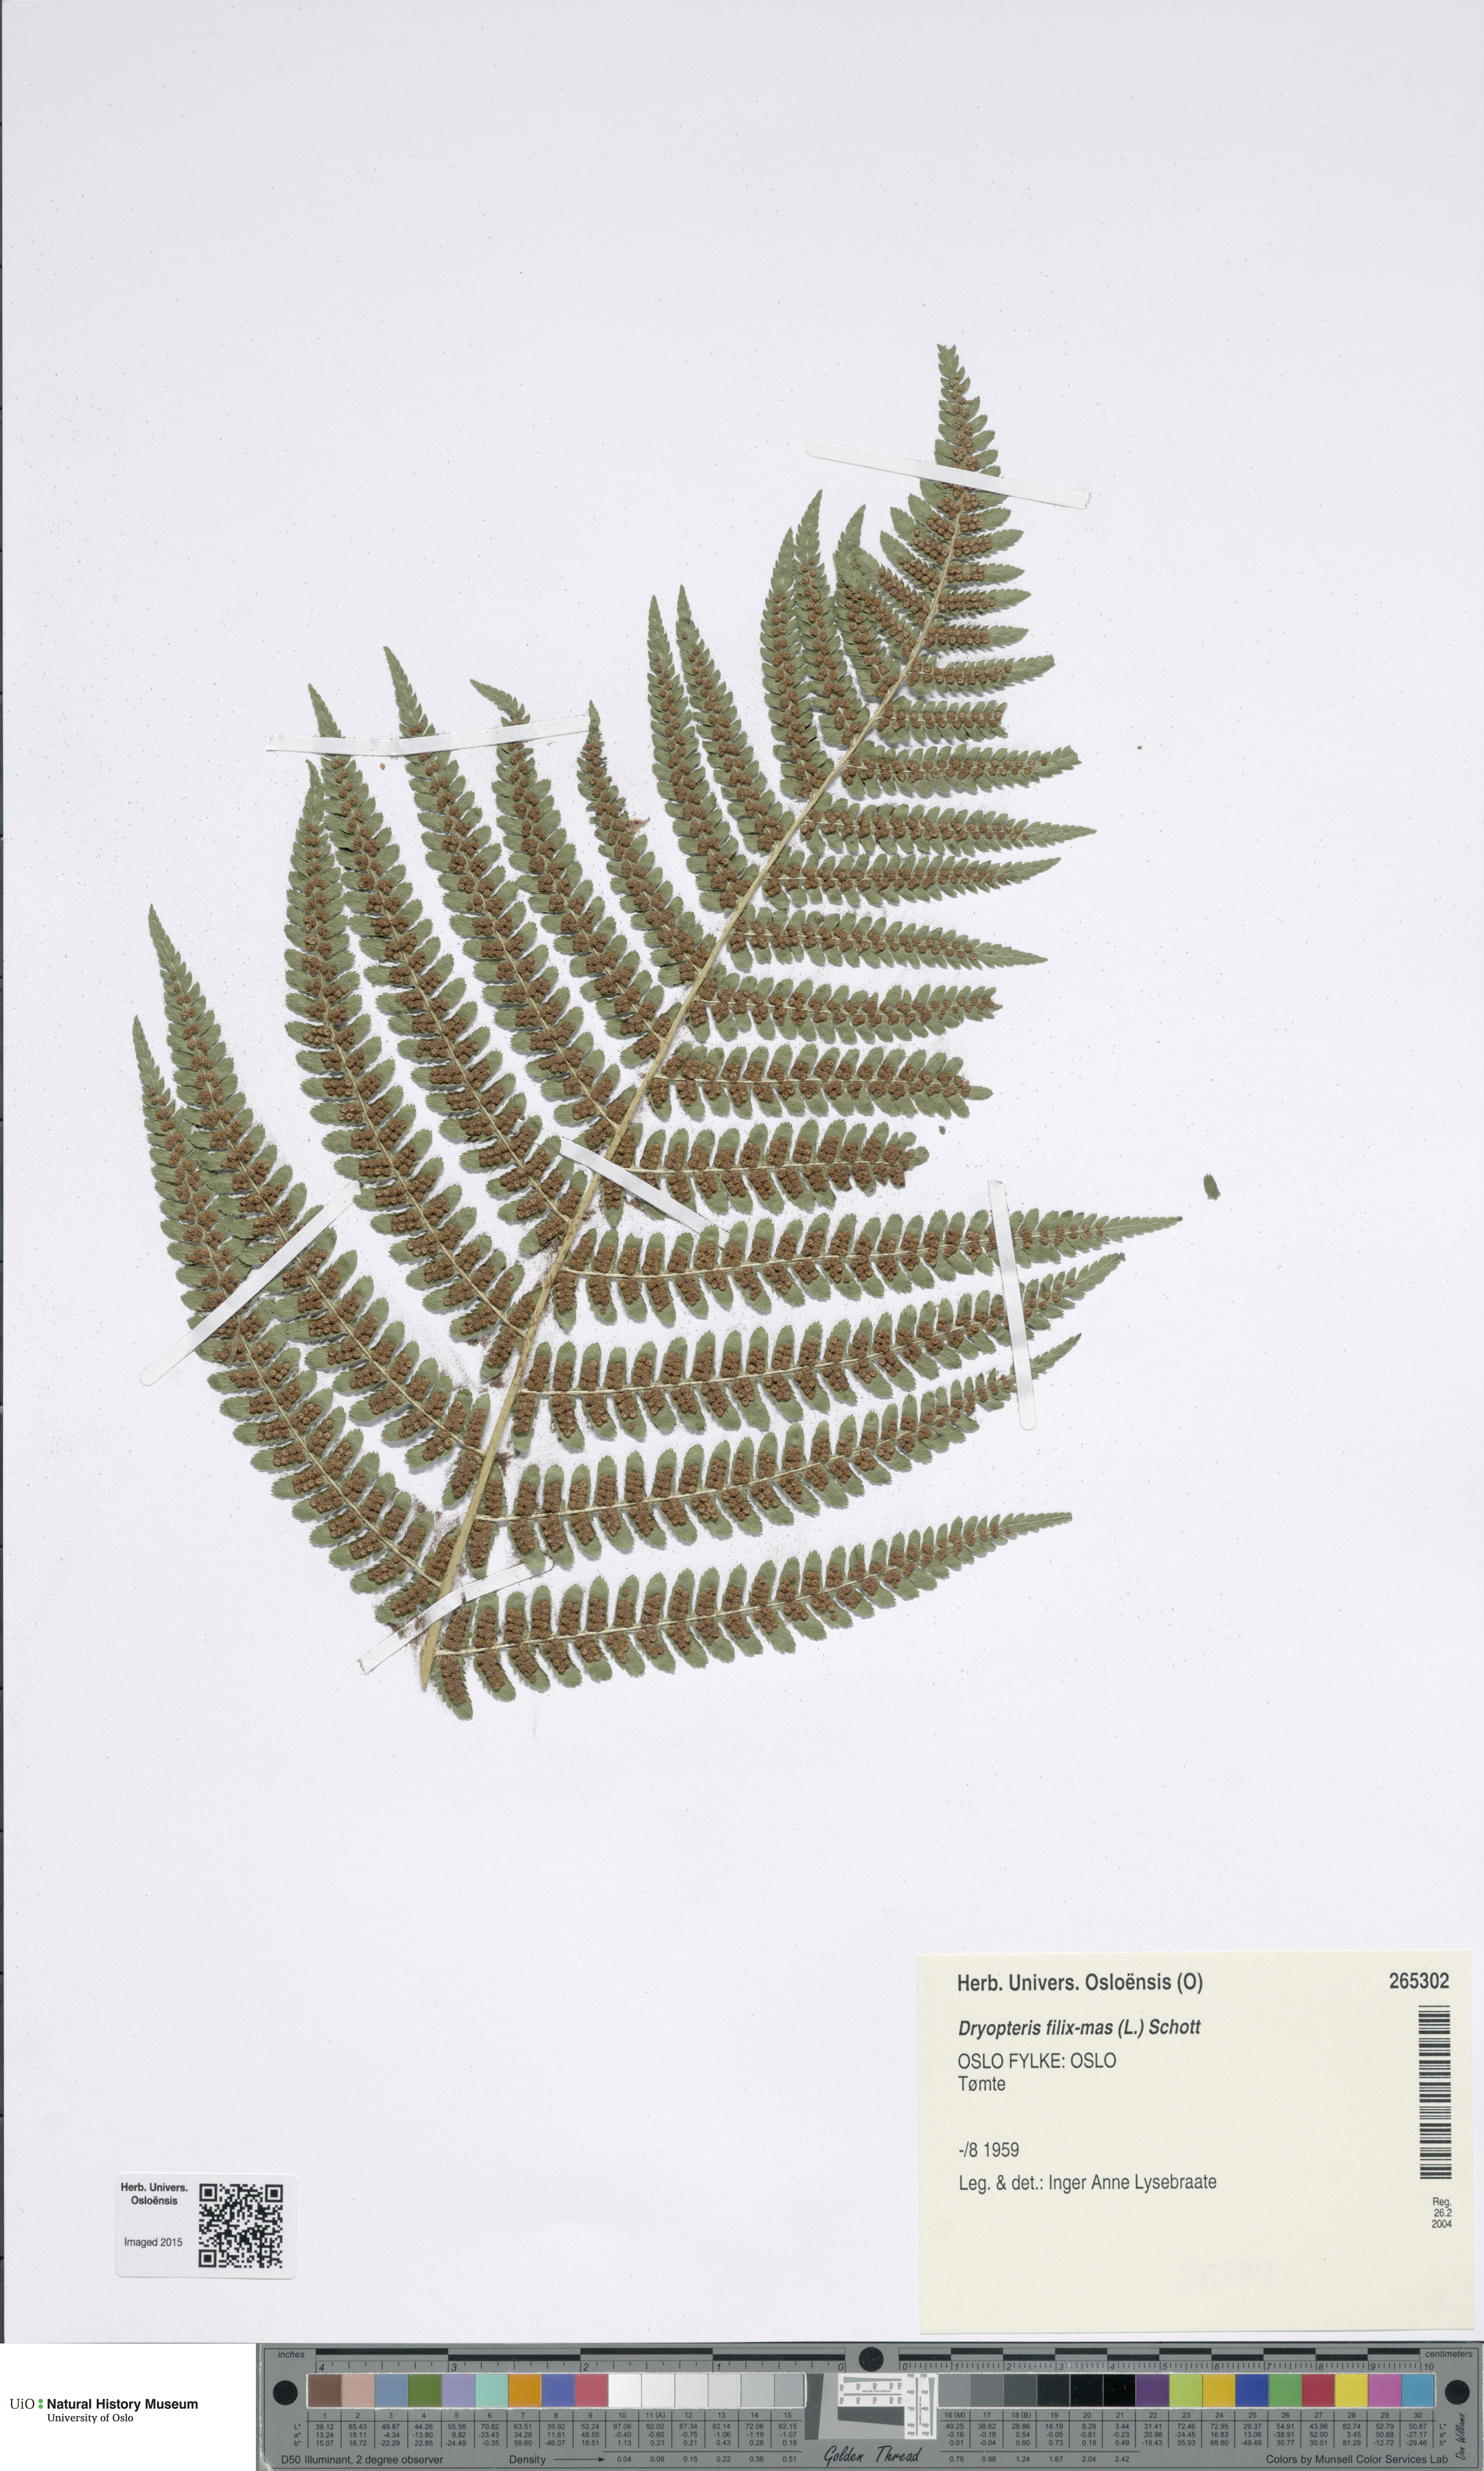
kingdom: Plantae
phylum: Tracheophyta
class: Polypodiopsida
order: Polypodiales
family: Dryopteridaceae
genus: Dryopteris
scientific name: Dryopteris filix-mas
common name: Male fern
